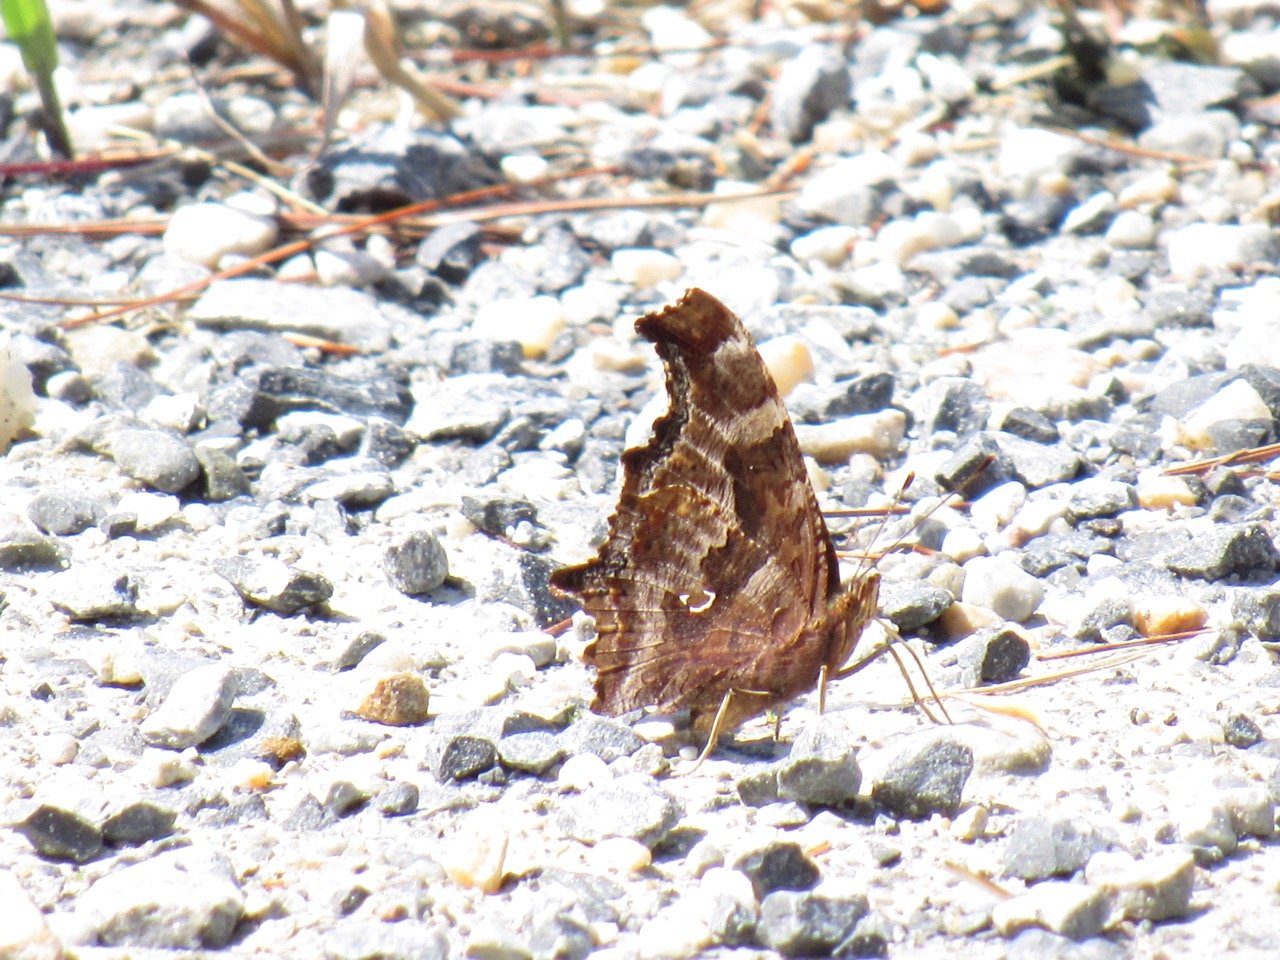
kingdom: Animalia
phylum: Arthropoda
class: Insecta
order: Lepidoptera
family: Nymphalidae
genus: Polygonia
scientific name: Polygonia comma
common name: Eastern Comma
